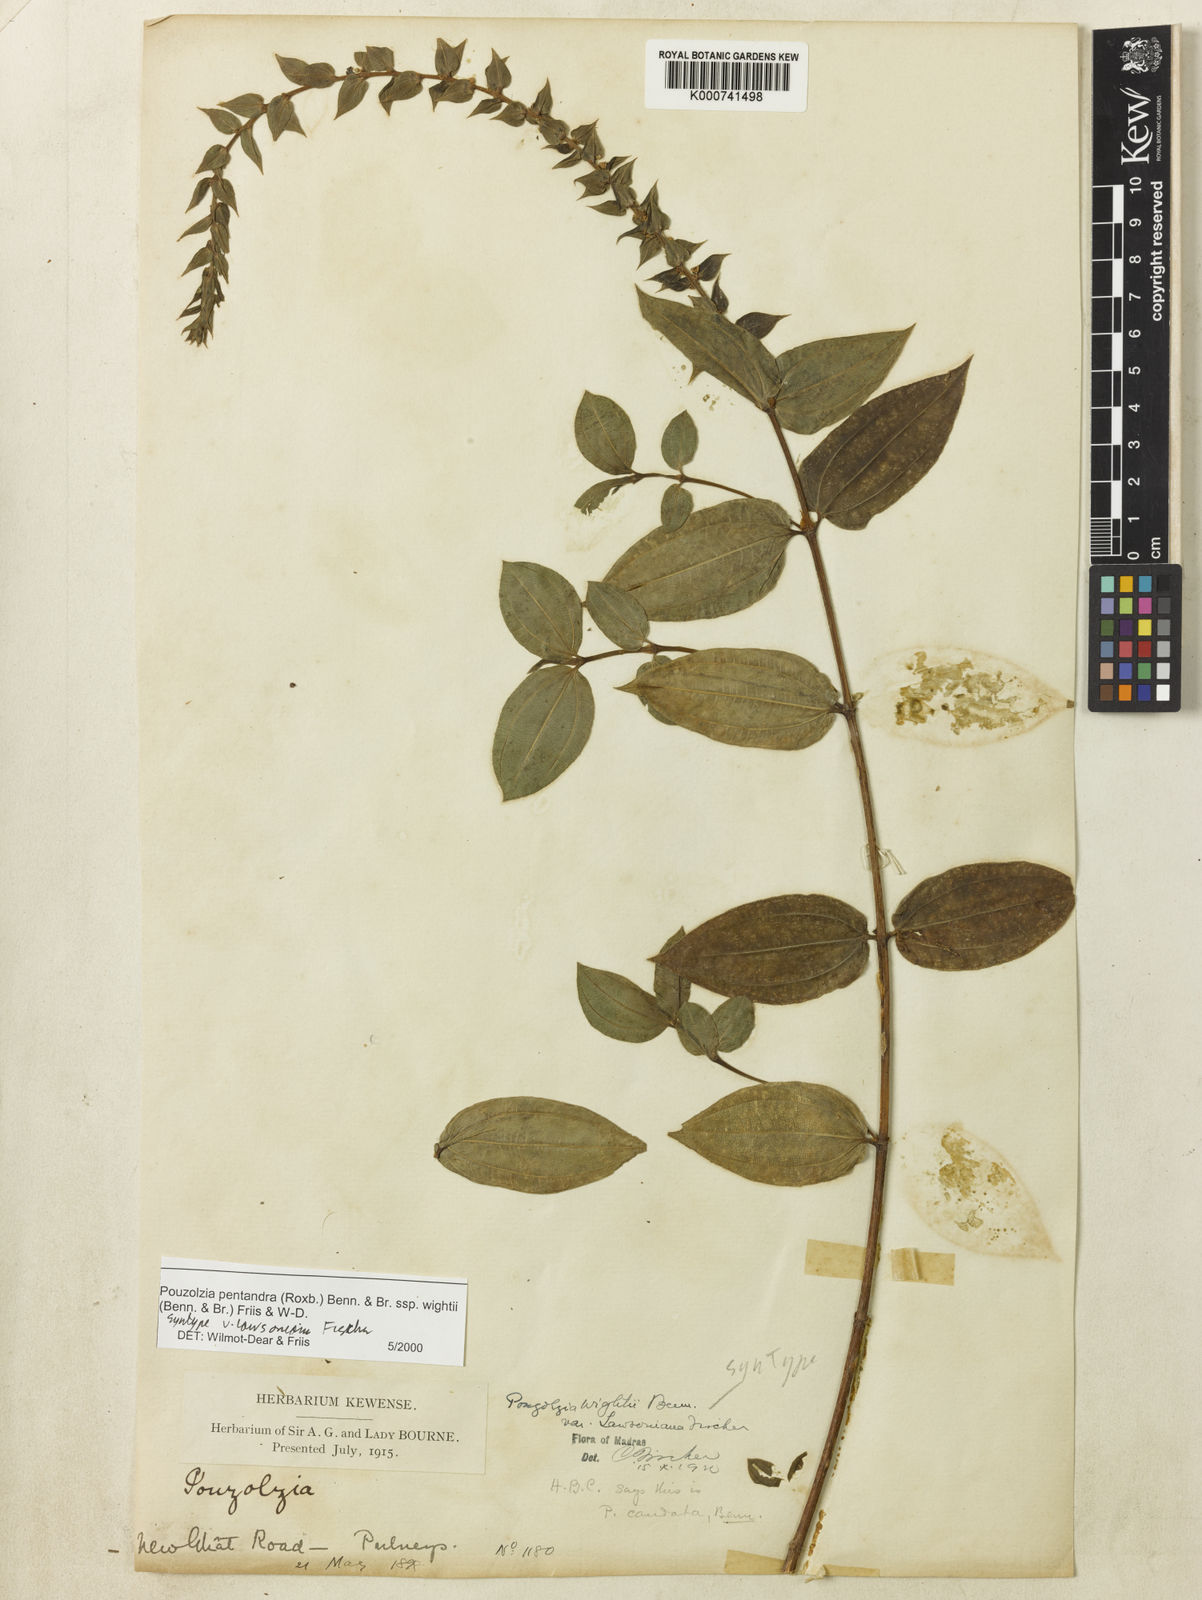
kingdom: Plantae
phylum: Tracheophyta
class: Magnoliopsida
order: Rosales
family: Urticaceae
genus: Gonostegia
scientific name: Gonostegia pentandra
